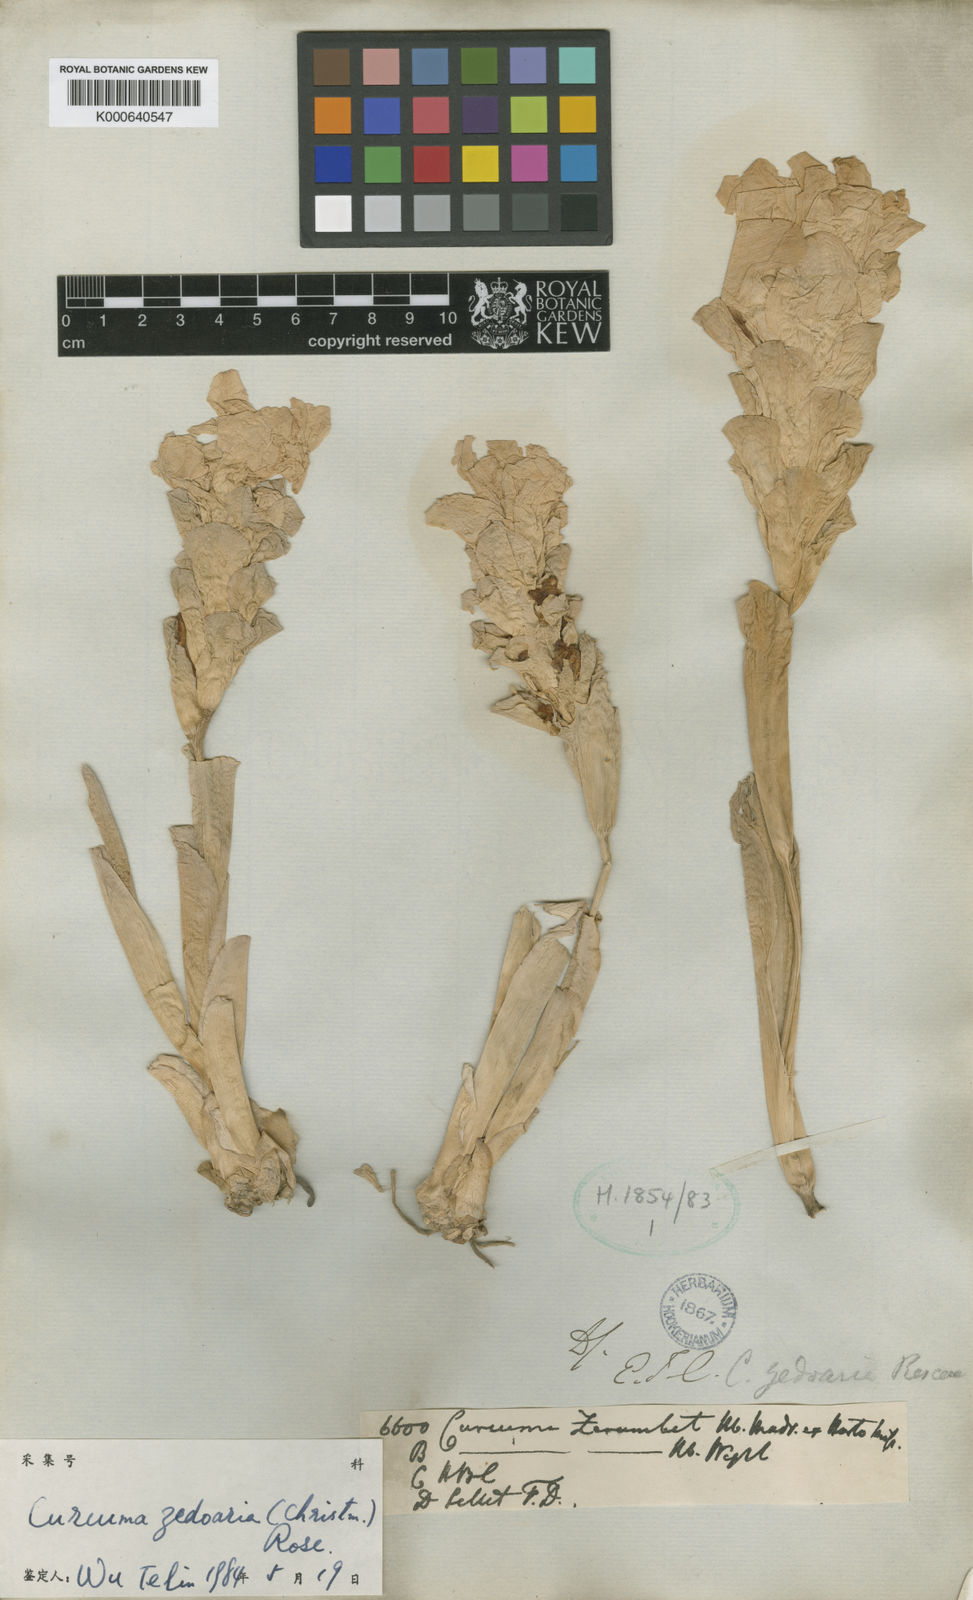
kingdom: Plantae
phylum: Tracheophyta
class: Liliopsida
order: Zingiberales
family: Zingiberaceae
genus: Curcuma
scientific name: Curcuma zedoaria
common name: Zedoary
